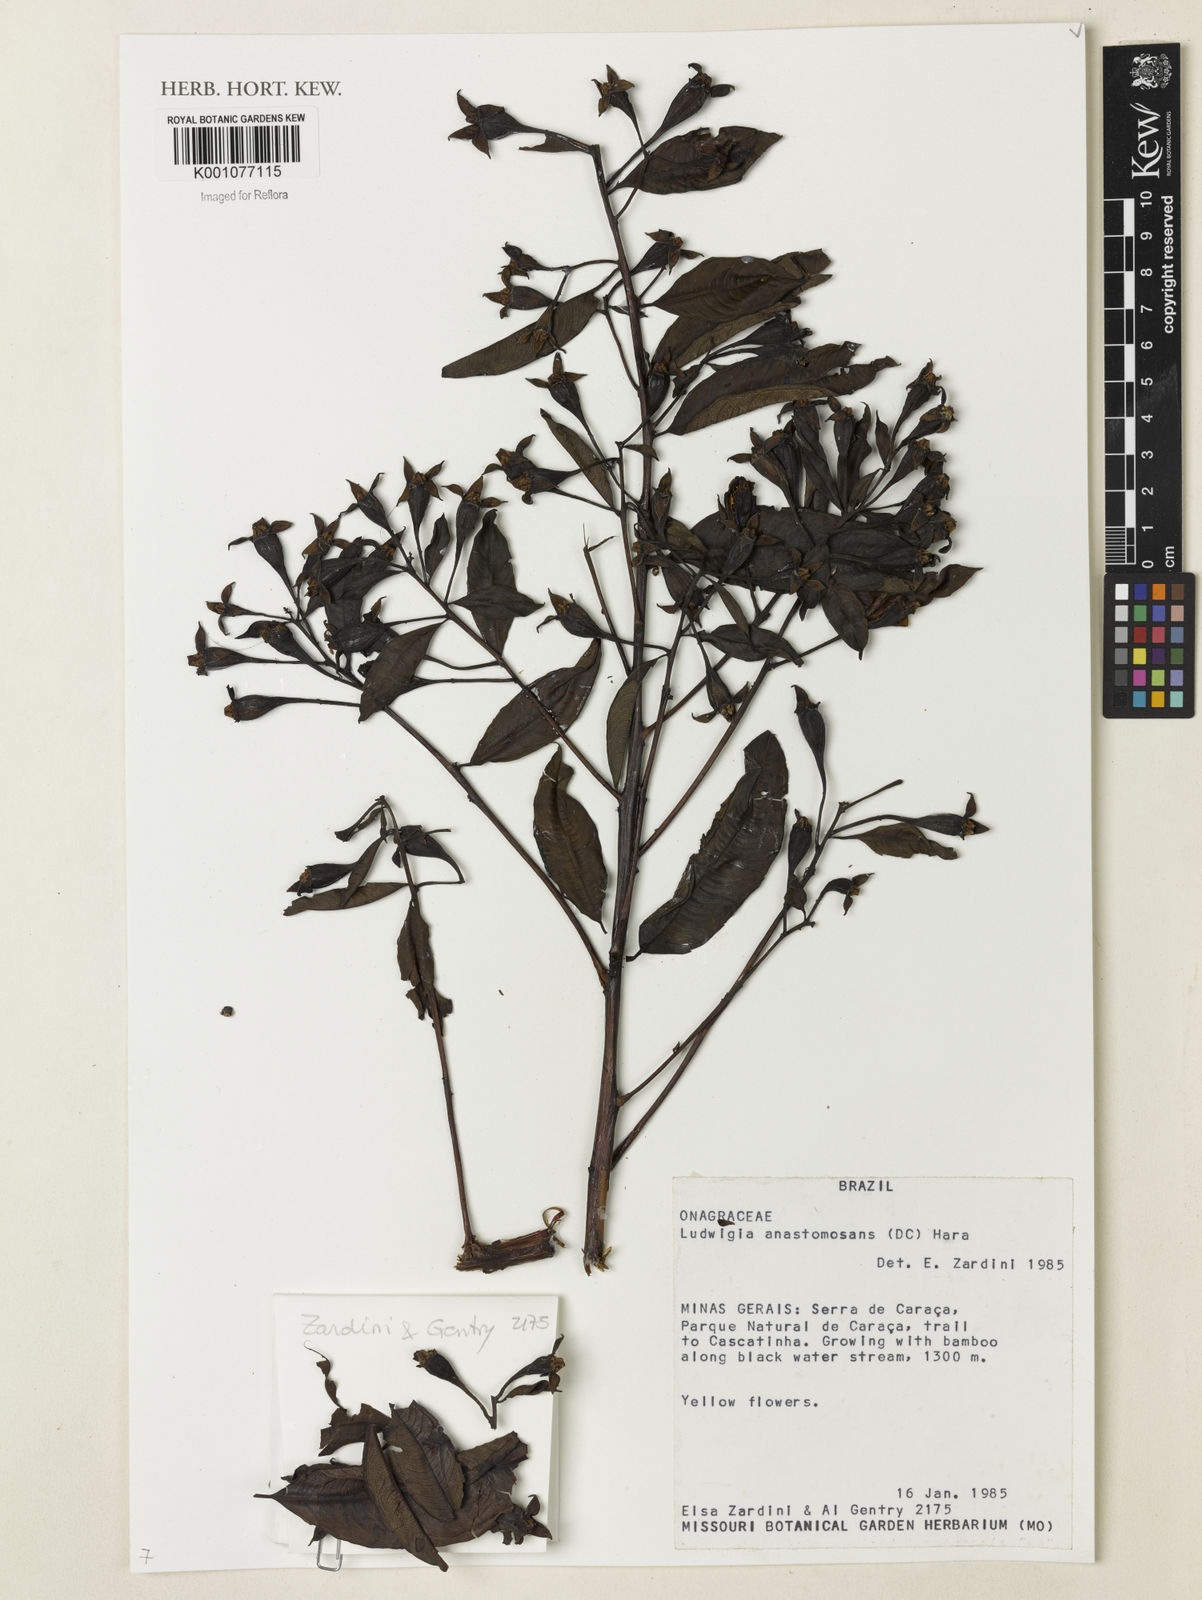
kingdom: Plantae
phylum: Tracheophyta
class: Magnoliopsida
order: Myrtales
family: Onagraceae
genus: Ludwigia
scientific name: Ludwigia anastomosans
